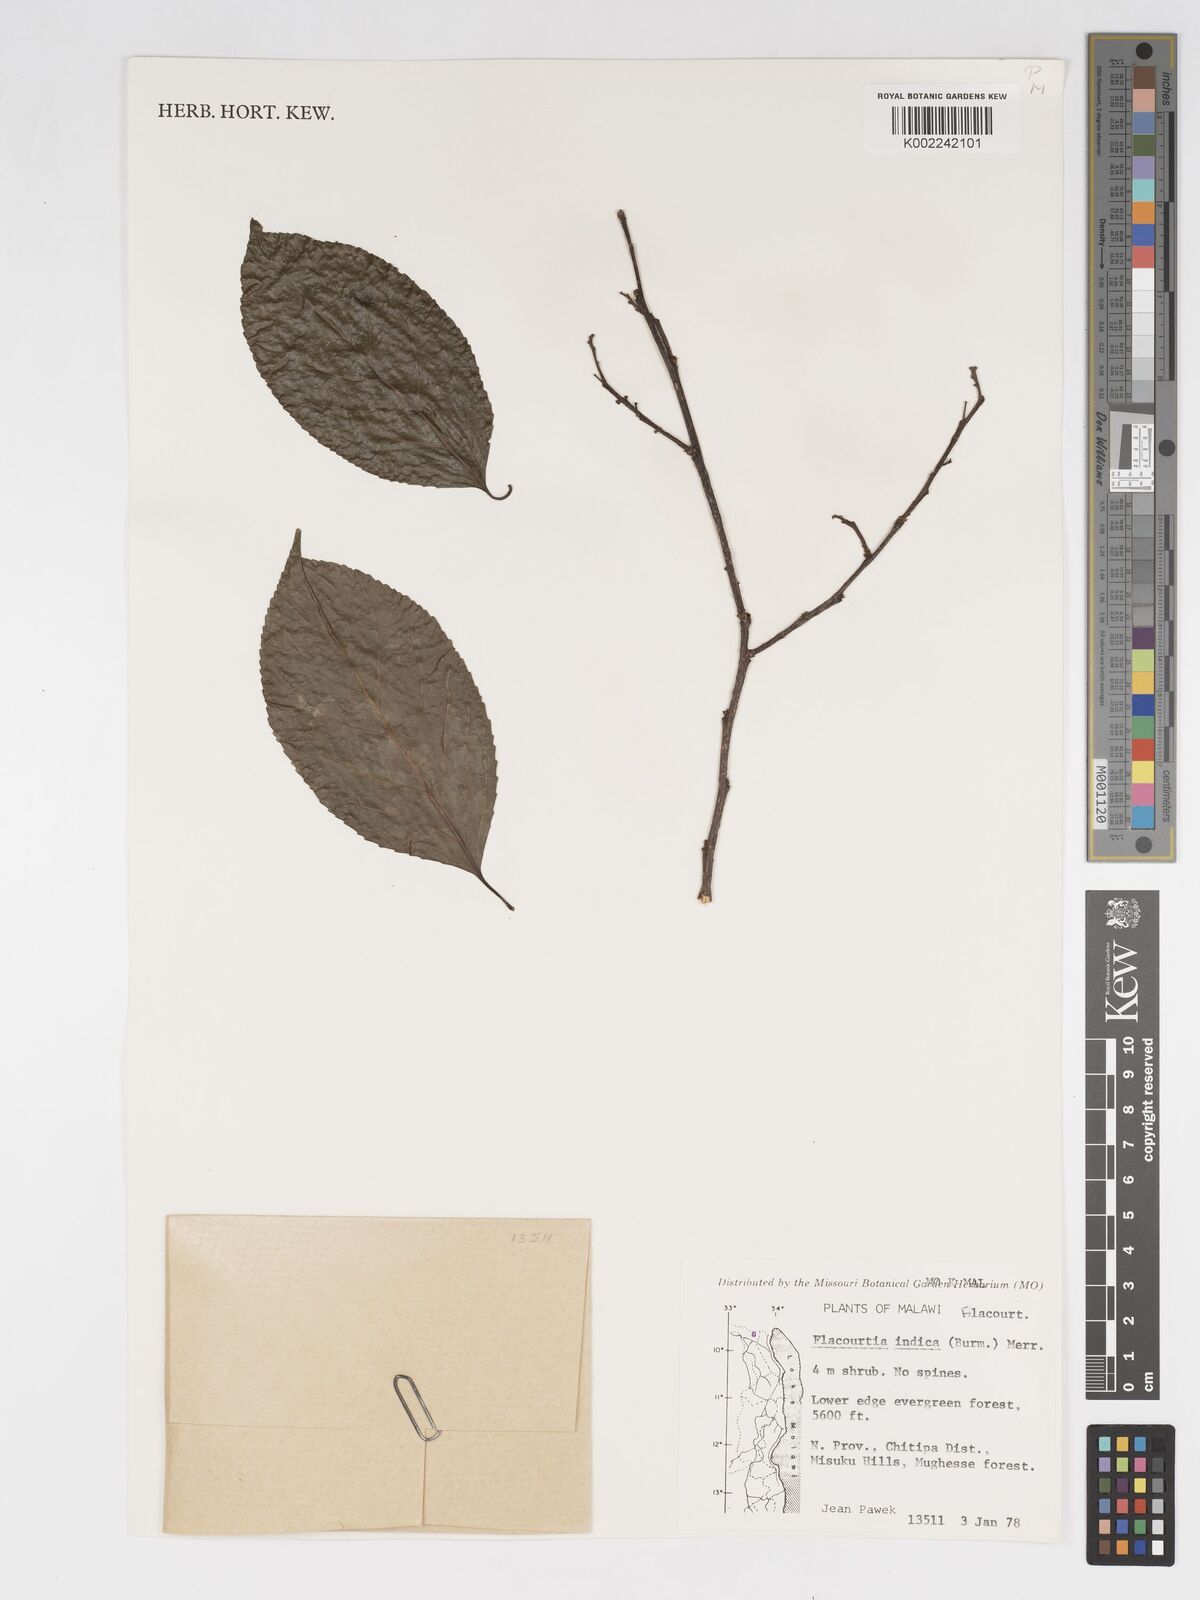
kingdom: Plantae
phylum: Tracheophyta
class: Magnoliopsida
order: Malpighiales
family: Salicaceae
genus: Flacourtia
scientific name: Flacourtia indica
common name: Governor's plum
